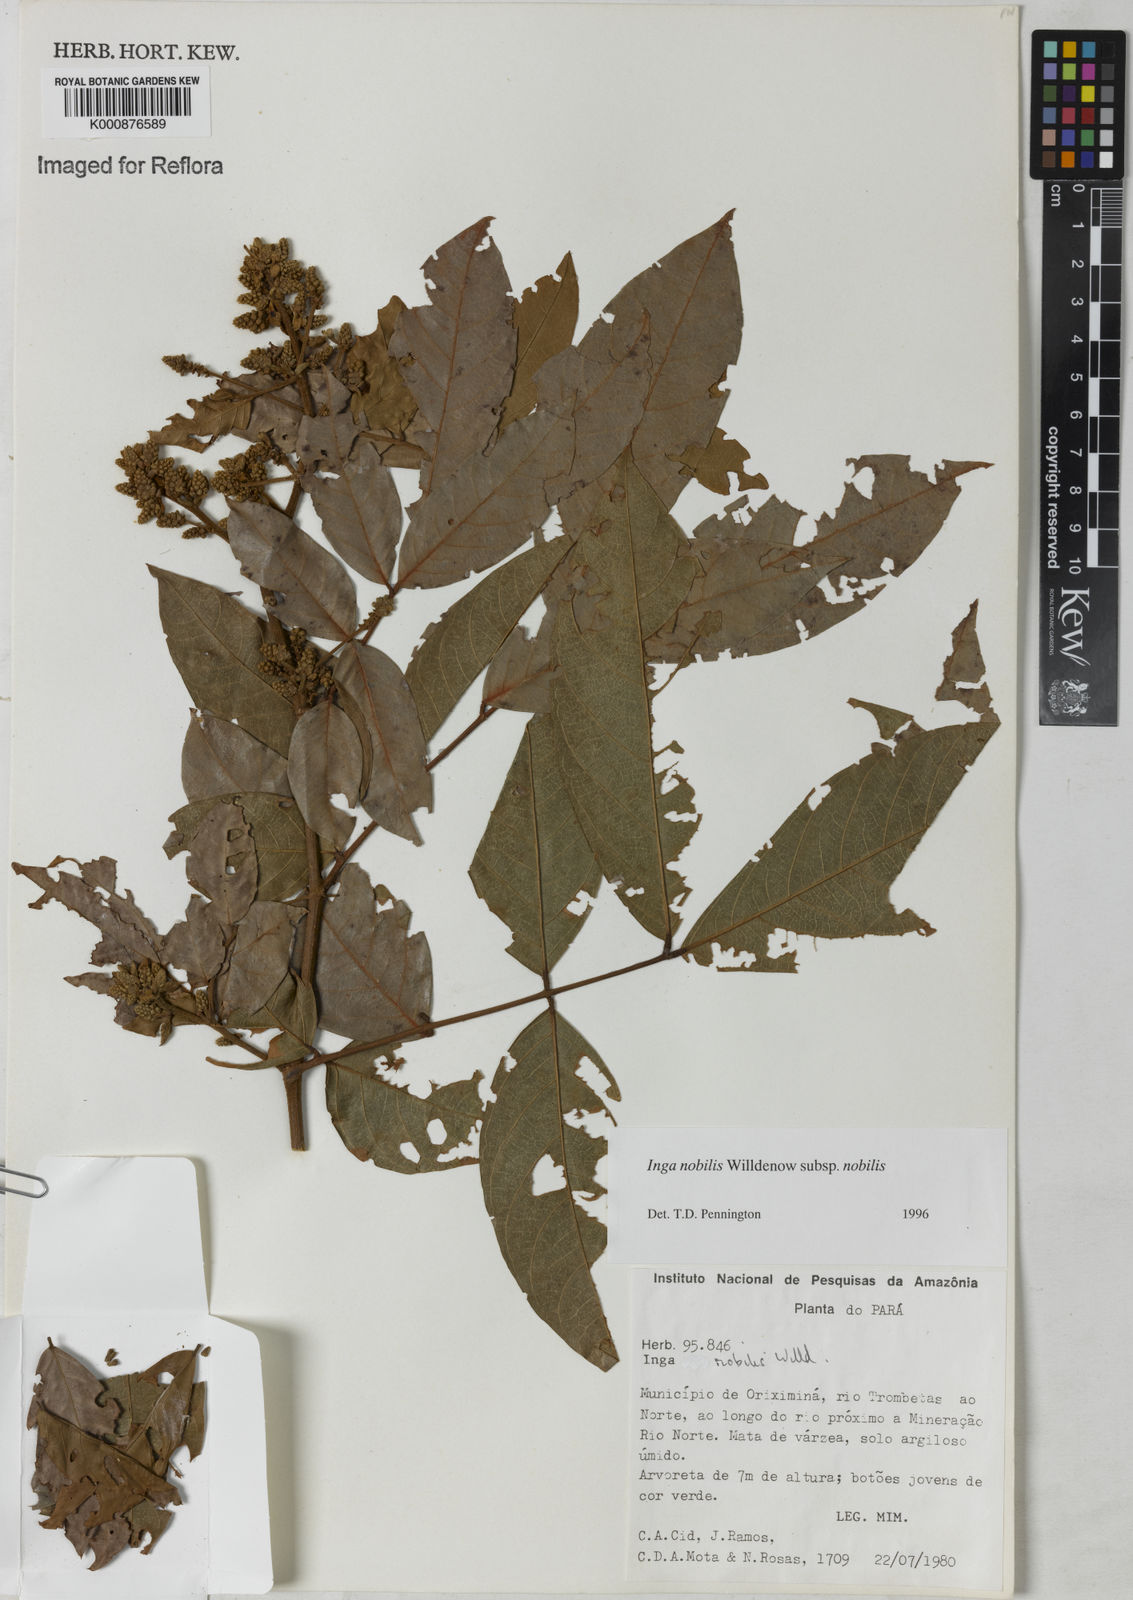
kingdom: Plantae
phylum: Tracheophyta
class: Magnoliopsida
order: Fabales
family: Fabaceae
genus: Inga
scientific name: Inga nobilis
